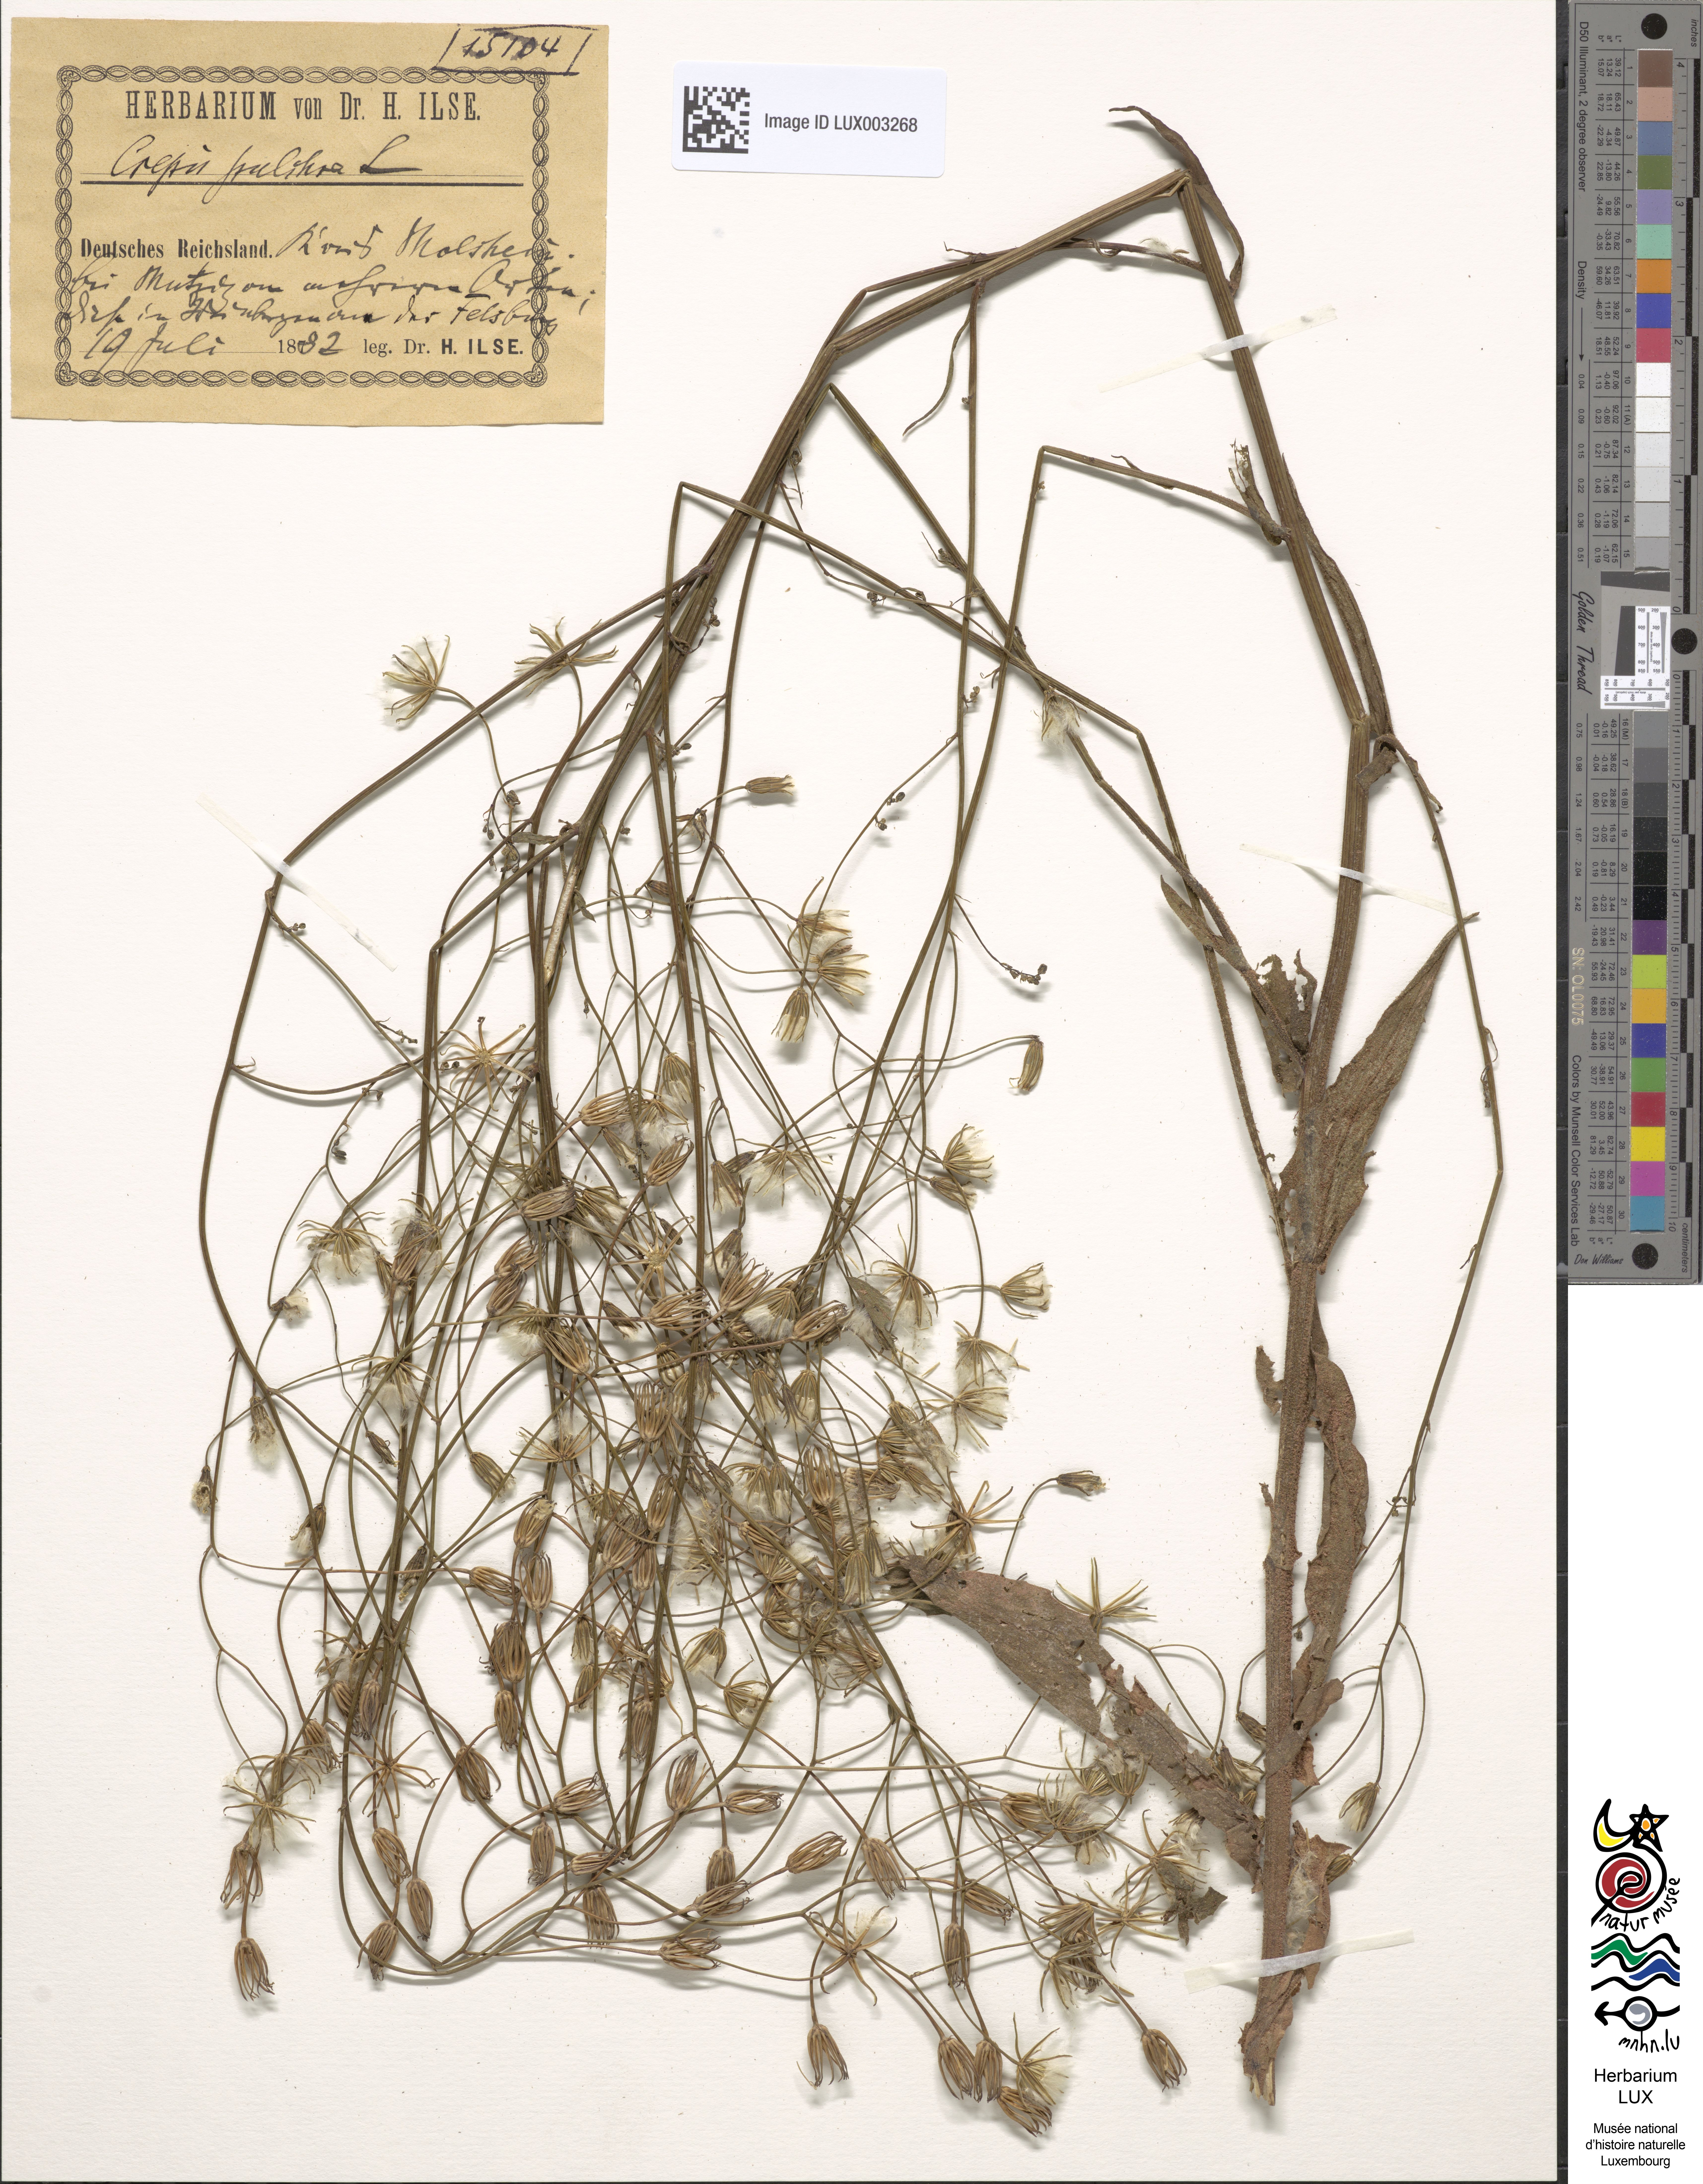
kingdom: Plantae
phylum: Tracheophyta
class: Magnoliopsida
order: Asterales
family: Asteraceae
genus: Crepis
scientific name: Crepis pulchra
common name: Hawk's-beard
